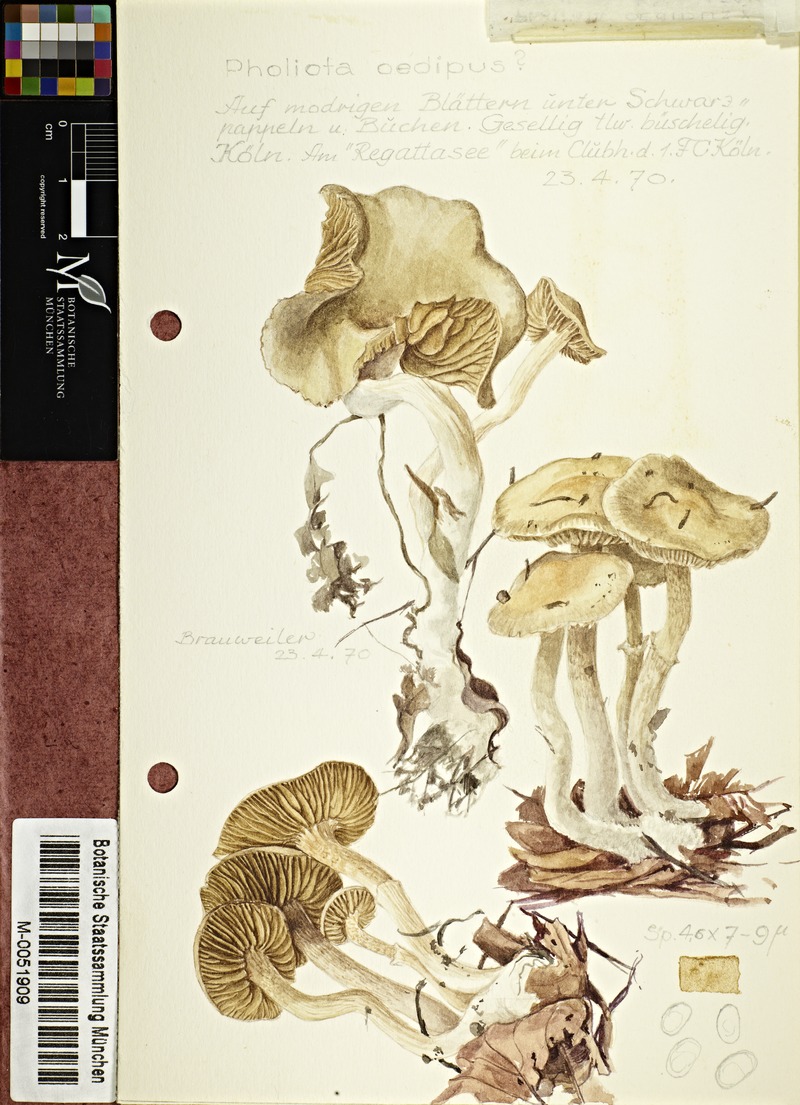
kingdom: Fungi
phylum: Basidiomycota
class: Agaricomycetes
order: Agaricales
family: Strophariaceae
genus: Meottomyces
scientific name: Meottomyces dissimulans
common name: Winter brownie
